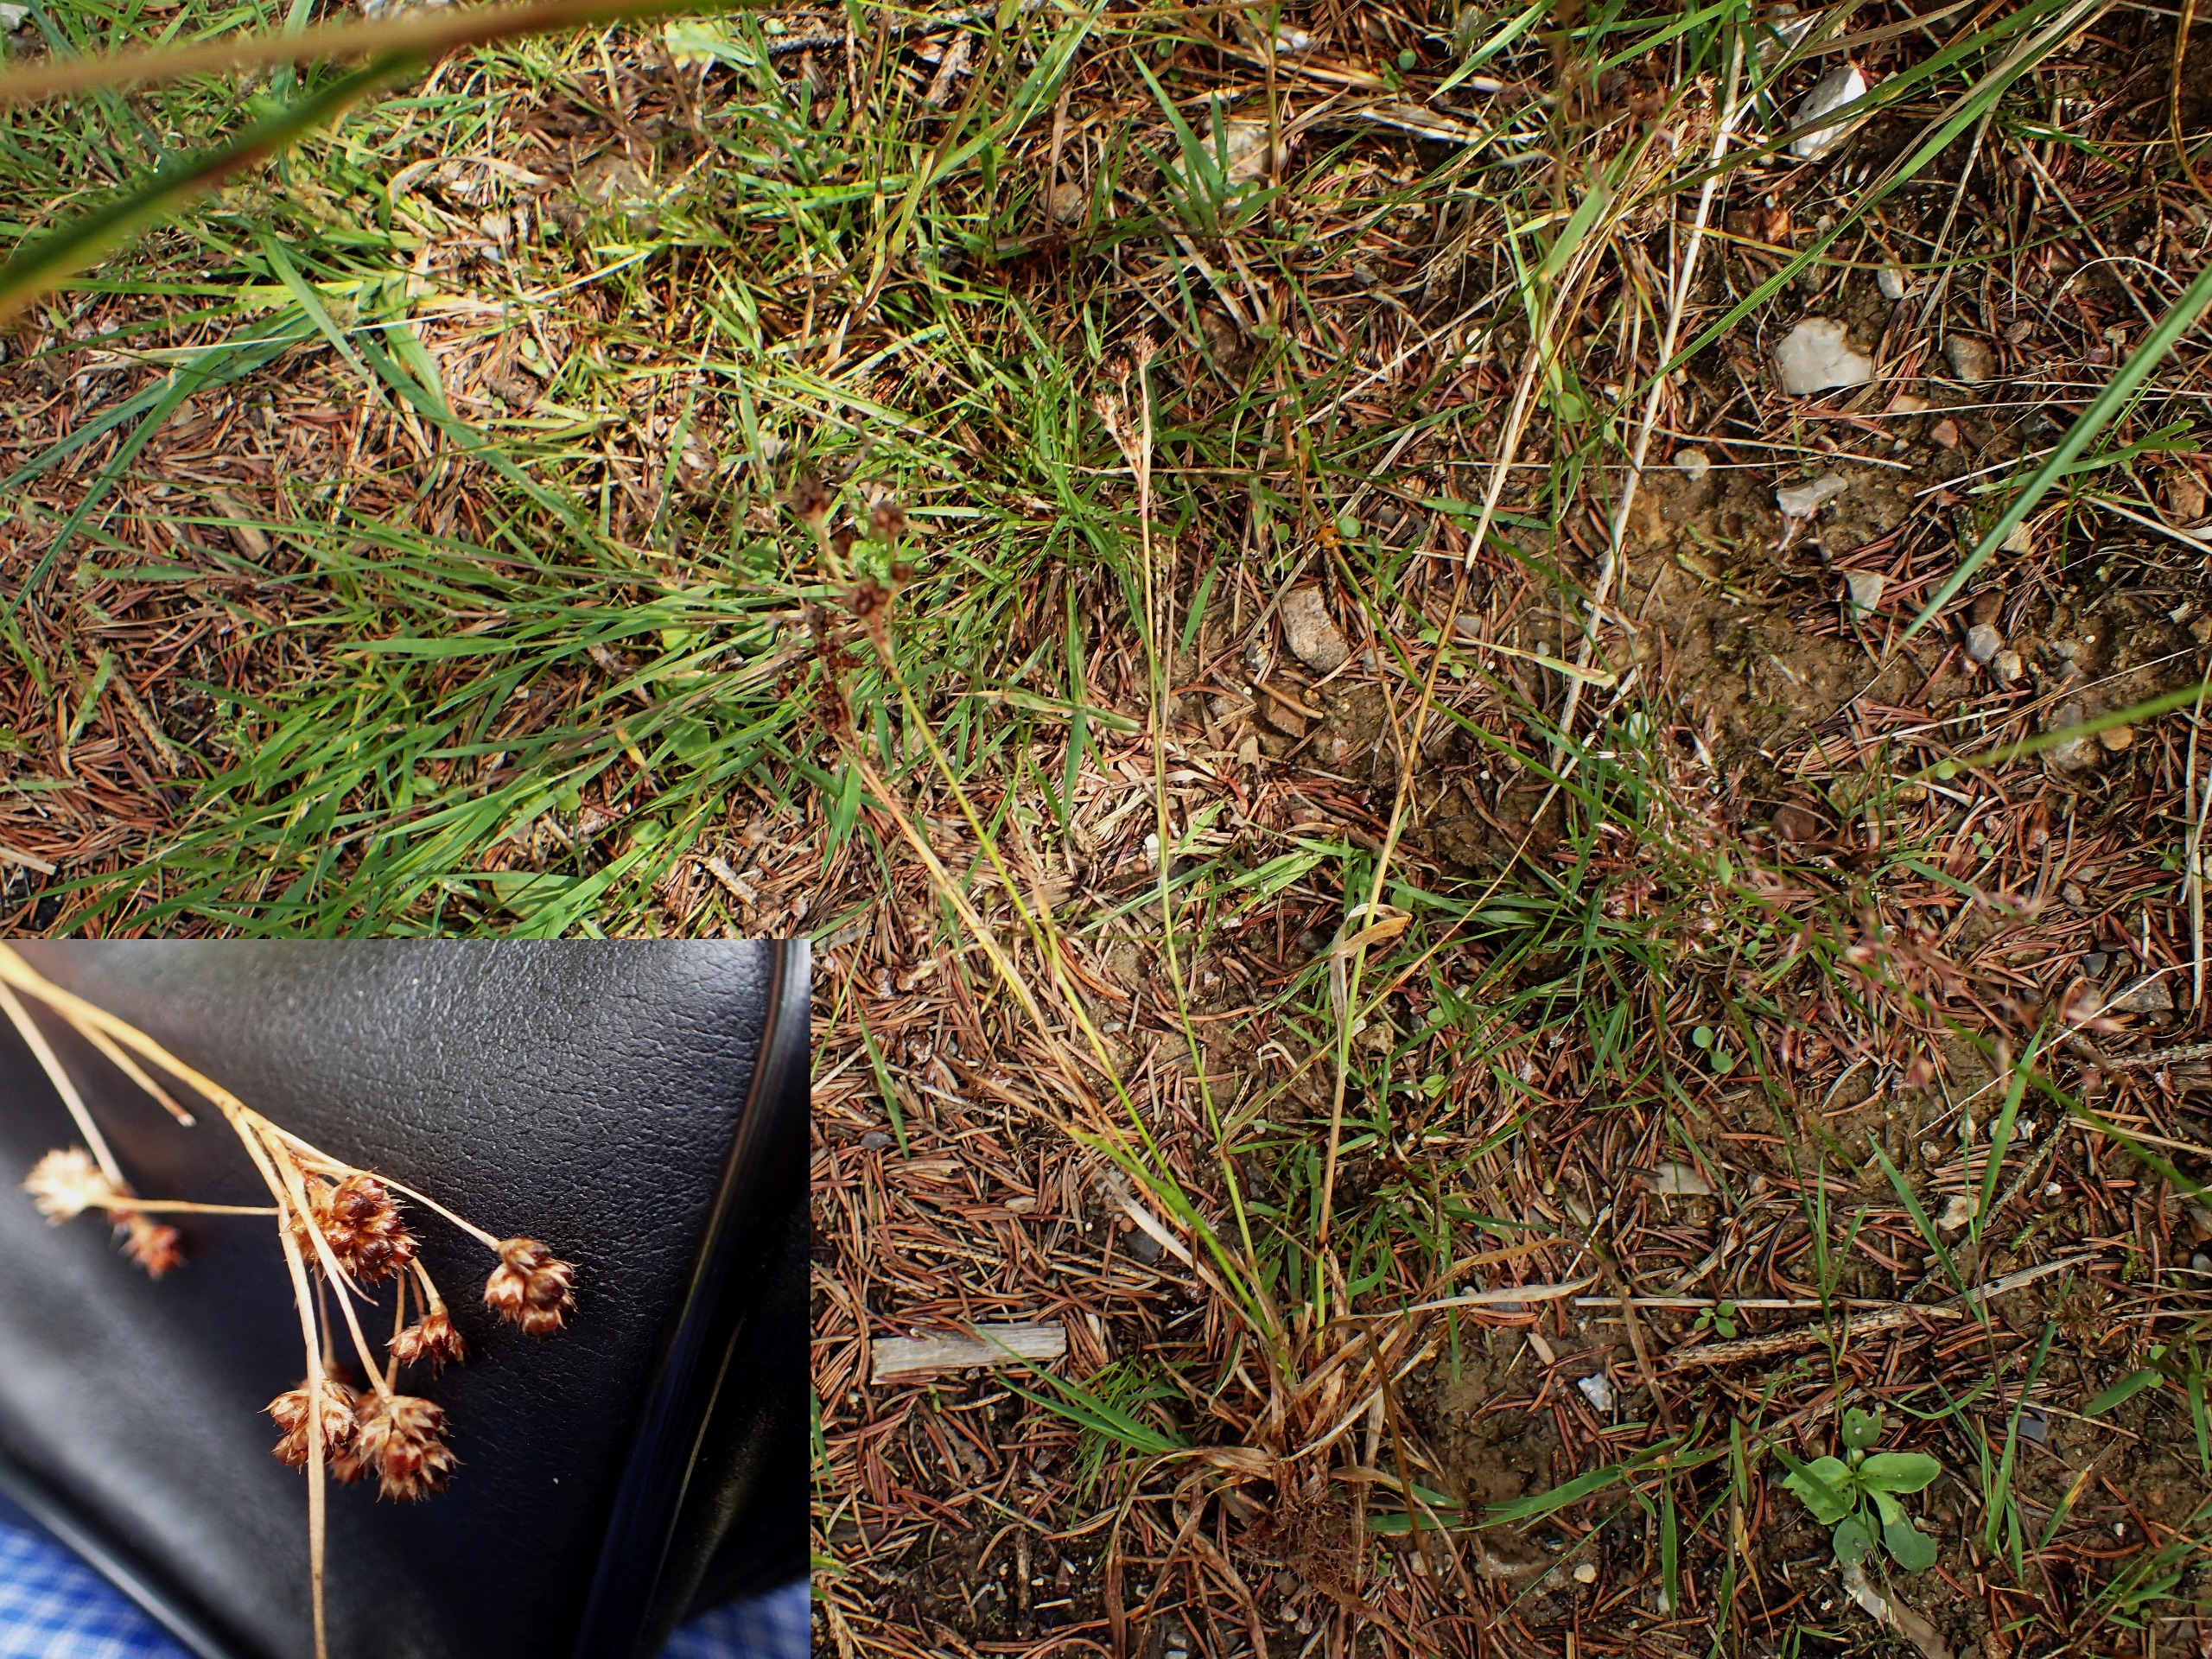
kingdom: Plantae
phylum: Tracheophyta
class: Liliopsida
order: Poales
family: Juncaceae
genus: Luzula
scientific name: Luzula multiflora
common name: Mangeblomstret frytle
